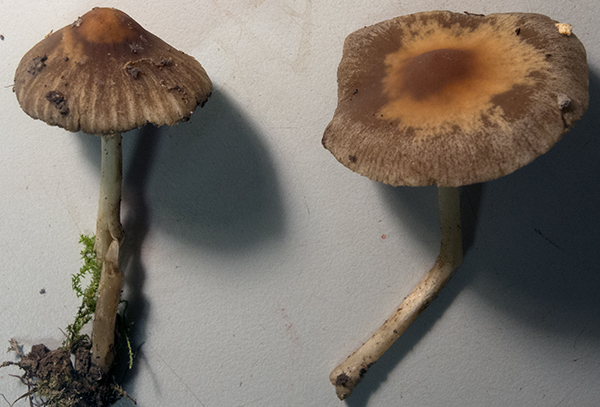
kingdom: Fungi
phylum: Basidiomycota
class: Agaricomycetes
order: Agaricales
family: Psathyrellaceae
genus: Psathyrella
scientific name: Psathyrella clivensis
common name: eng-mørkhat
